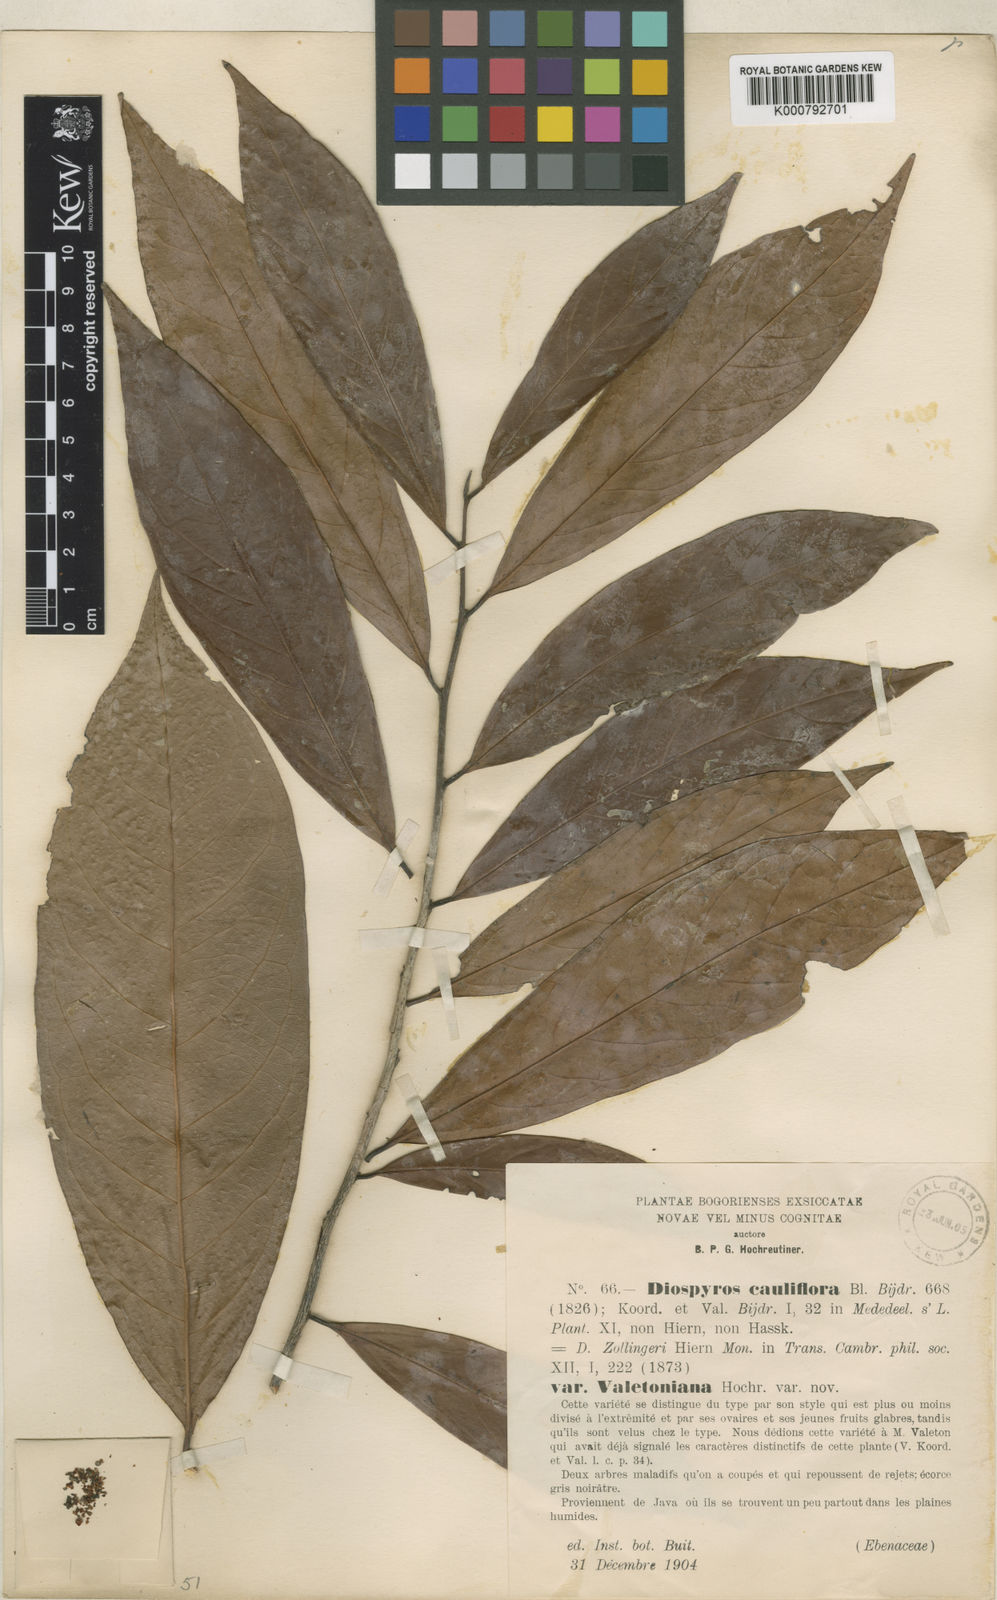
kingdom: Plantae
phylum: Tracheophyta
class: Magnoliopsida
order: Ericales
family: Ebenaceae
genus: Diospyros
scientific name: Diospyros cauliflora
